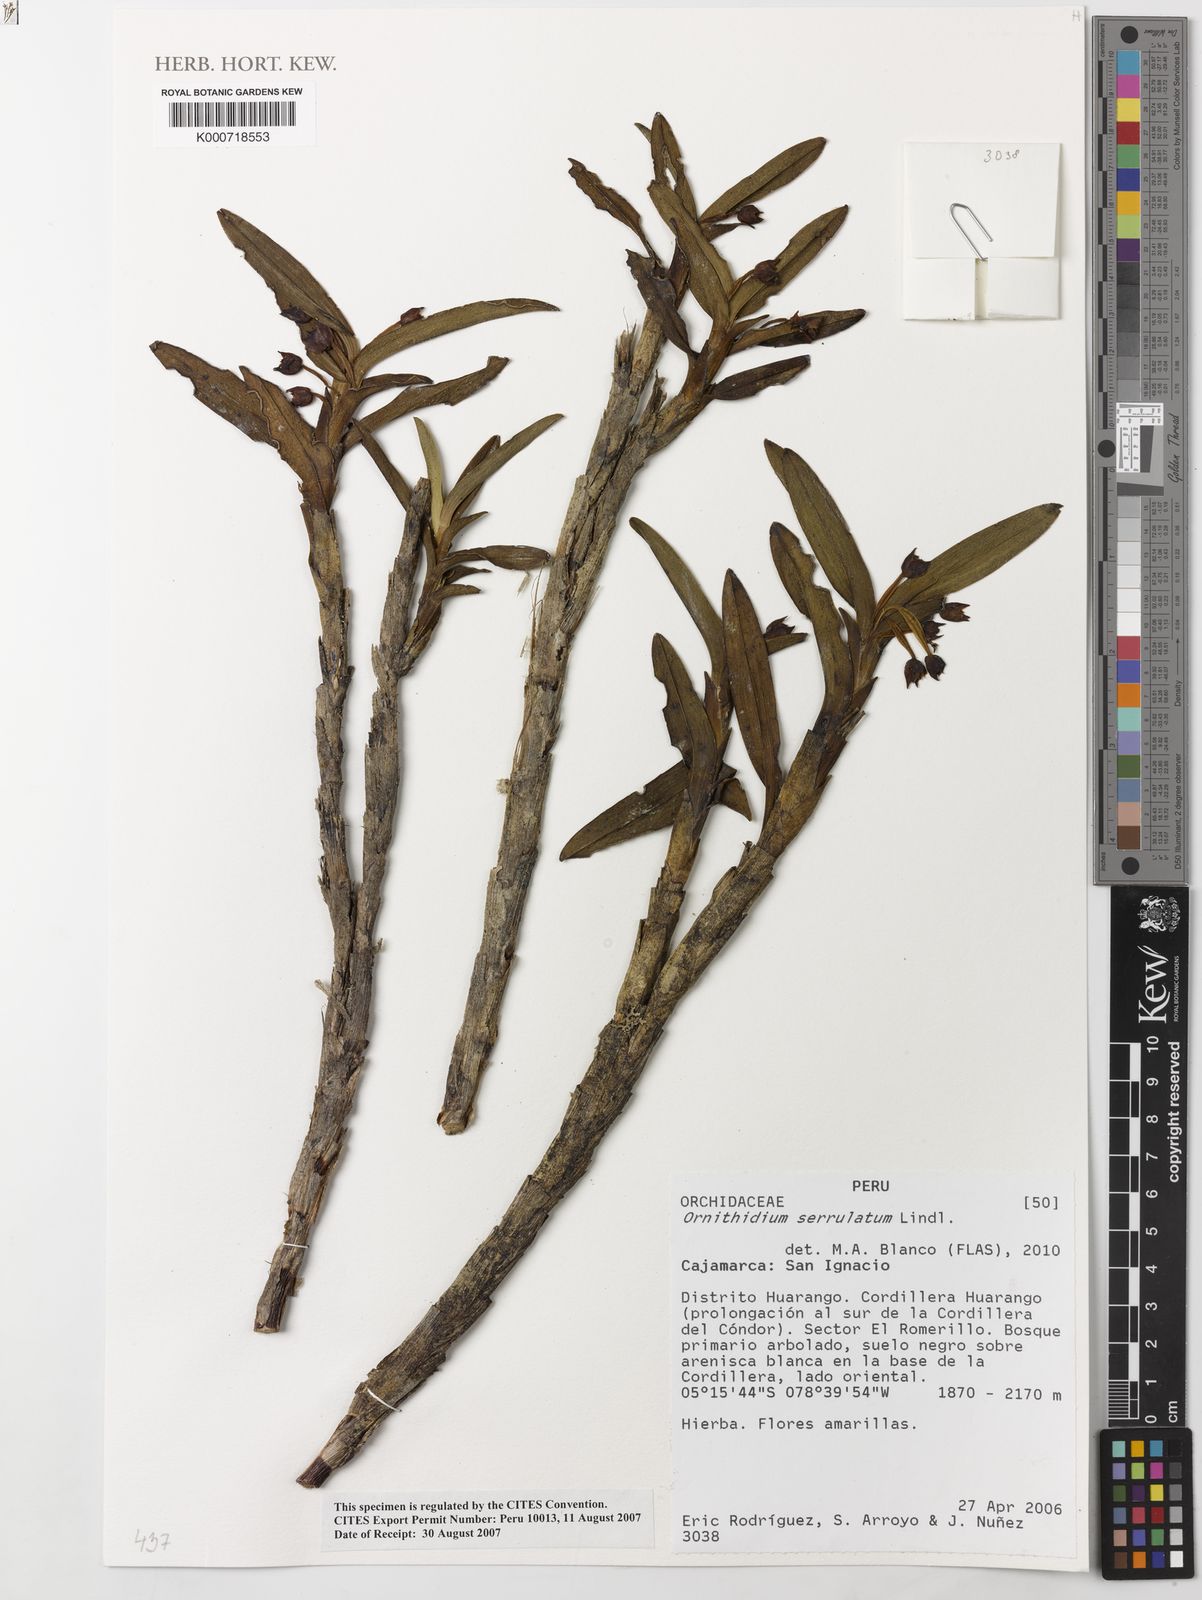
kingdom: Plantae
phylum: Tracheophyta
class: Liliopsida
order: Asparagales
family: Orchidaceae
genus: Maxillaria
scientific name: Maxillaria alticola
